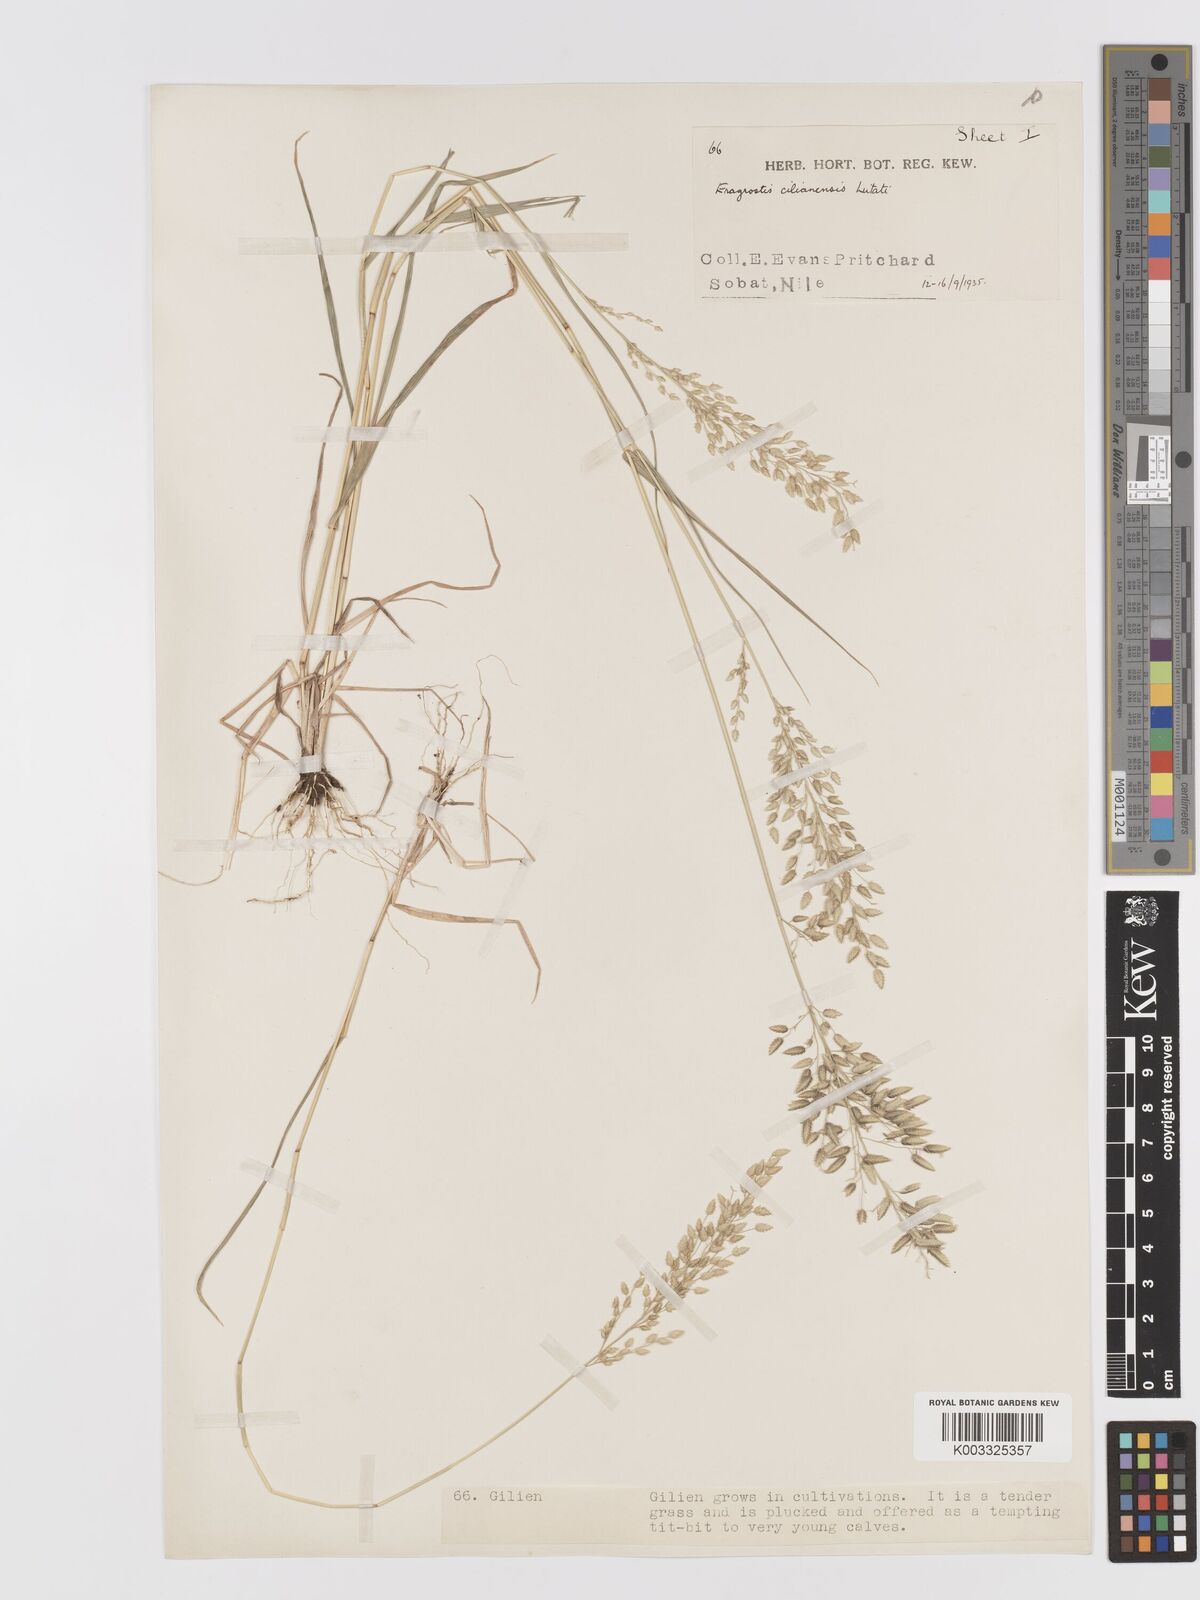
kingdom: Plantae
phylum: Tracheophyta
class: Liliopsida
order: Poales
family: Poaceae
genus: Eragrostis
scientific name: Eragrostis cilianensis
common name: Stinkgrass
